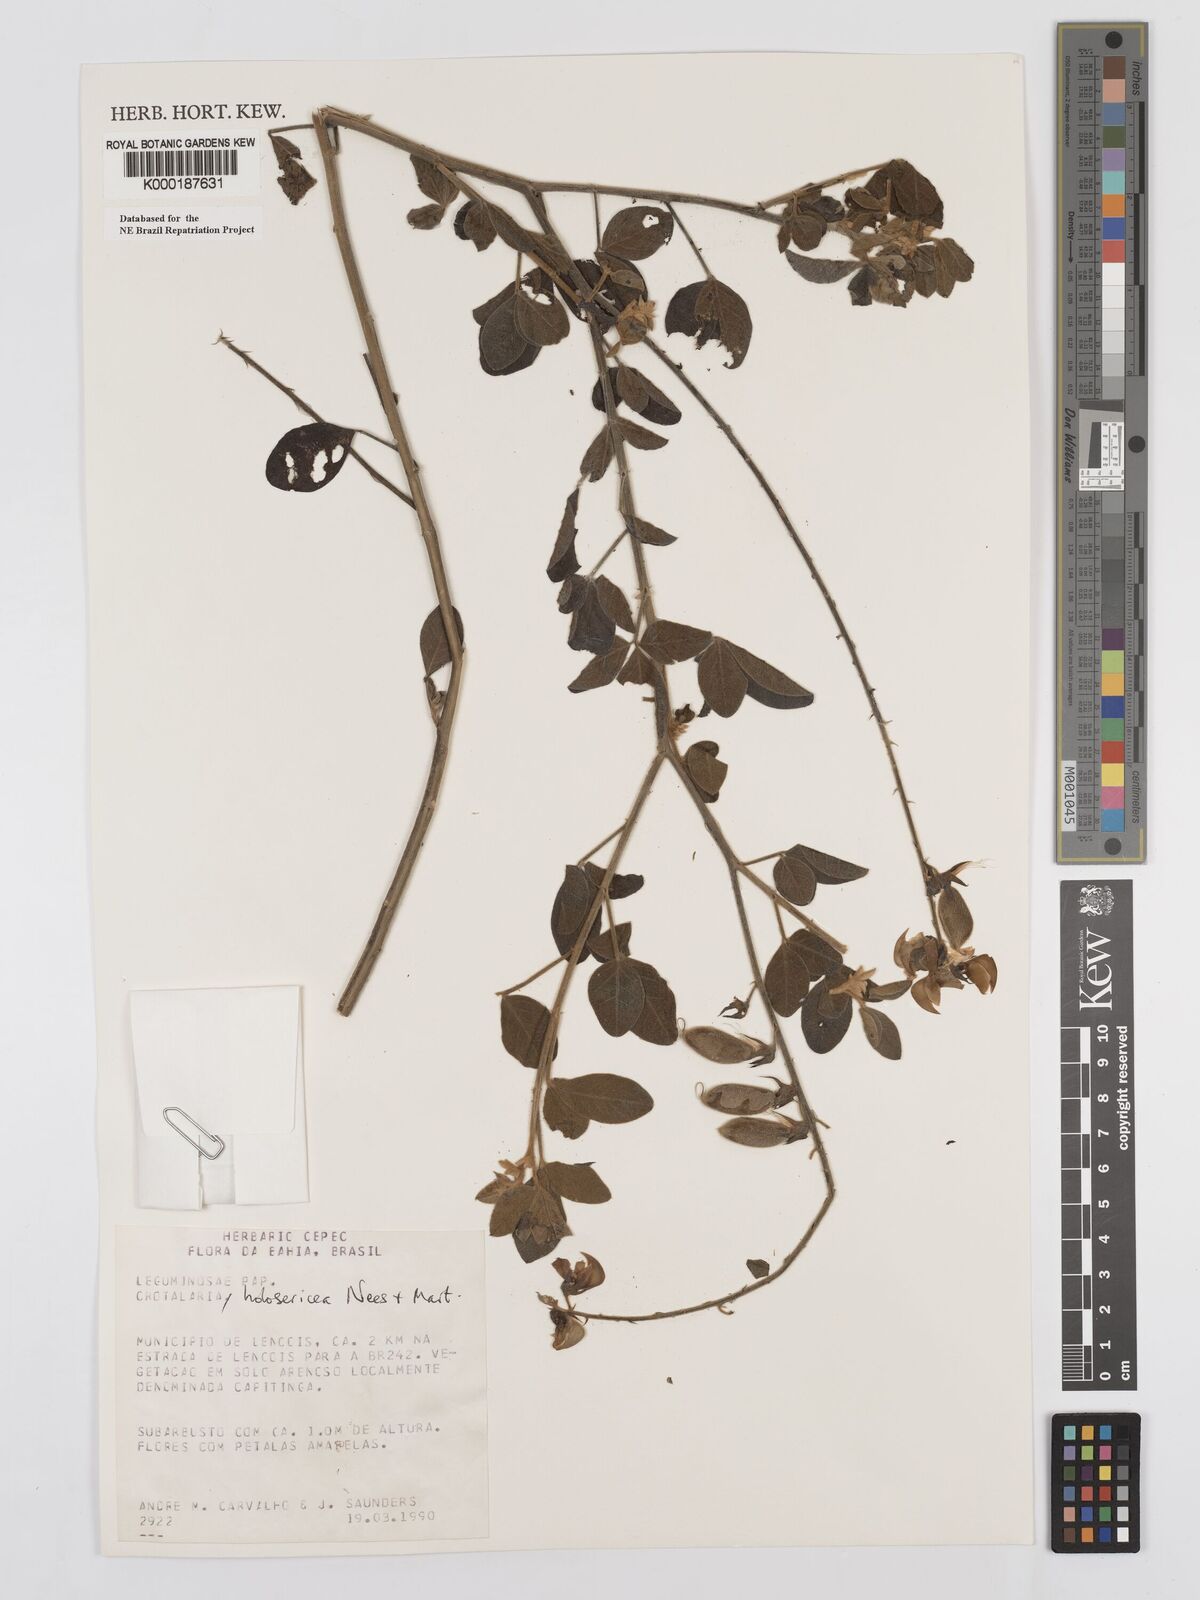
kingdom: Plantae
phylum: Tracheophyta
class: Magnoliopsida
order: Fabales
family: Fabaceae
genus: Crotalaria
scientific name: Crotalaria holosericea
